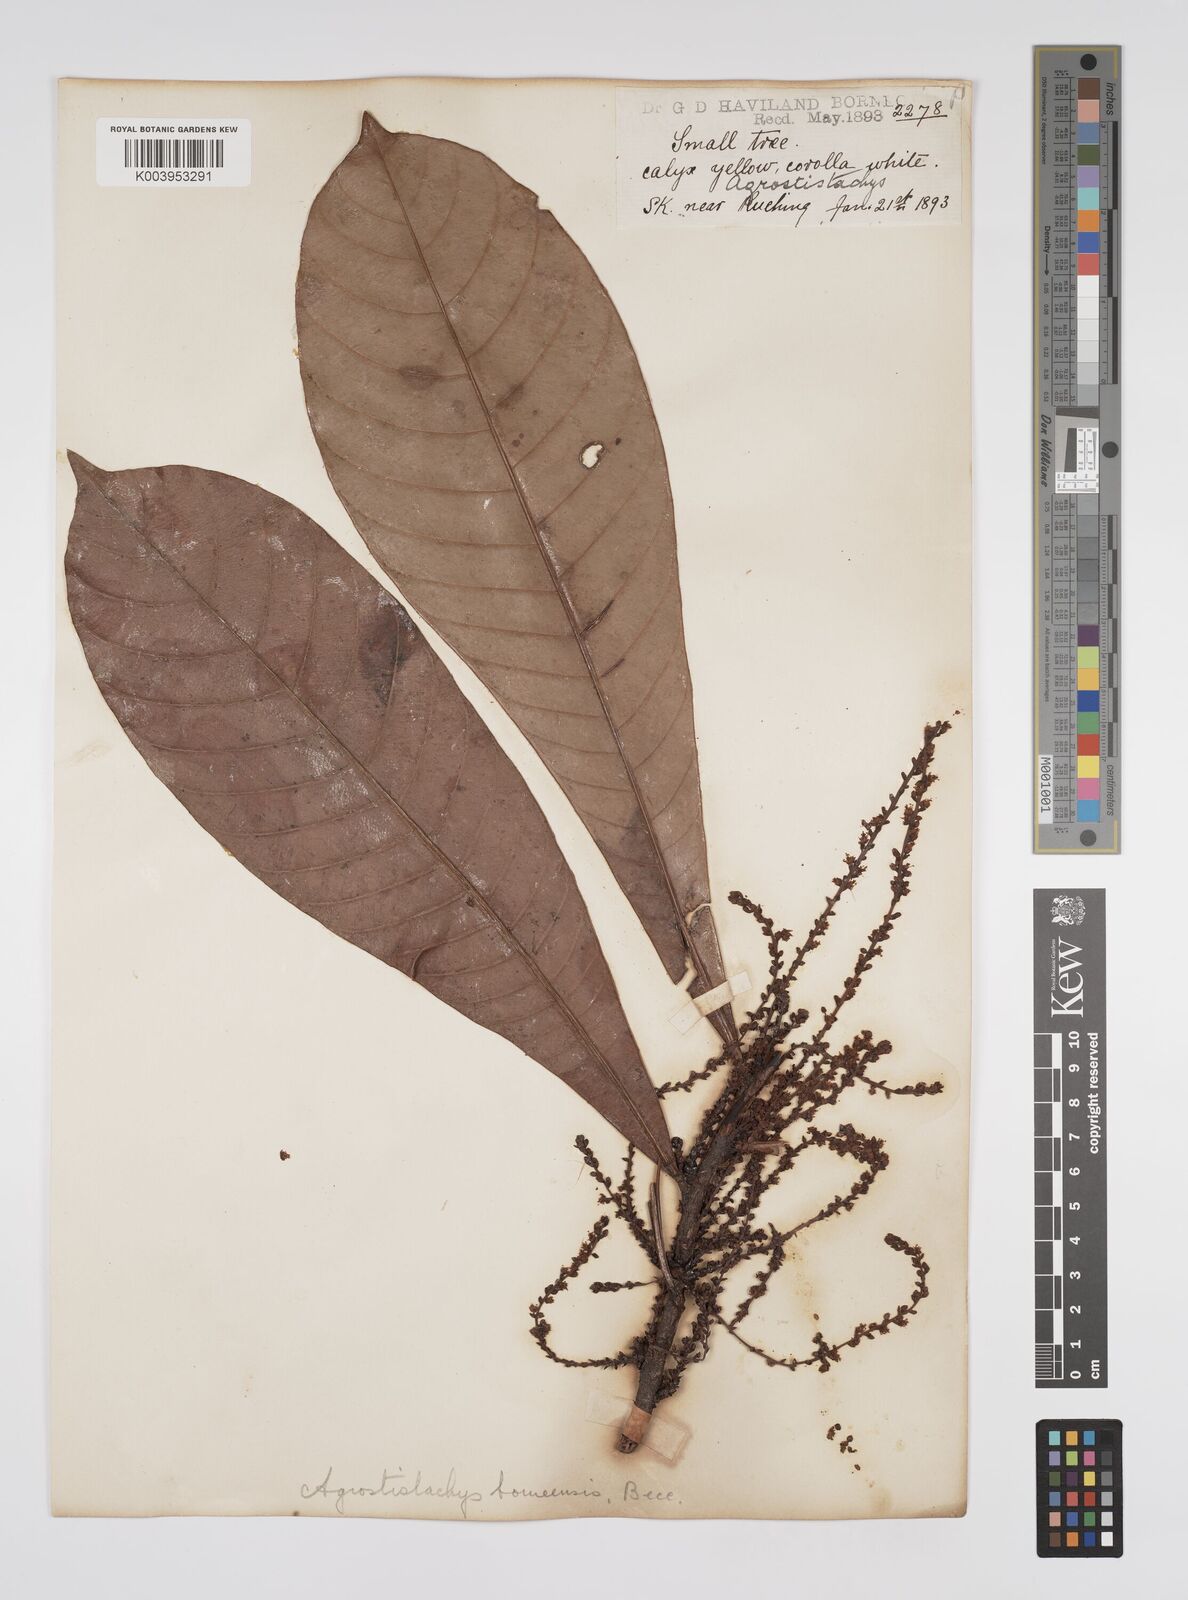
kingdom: Plantae
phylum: Tracheophyta
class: Magnoliopsida
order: Malpighiales
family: Euphorbiaceae
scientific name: Euphorbiaceae
